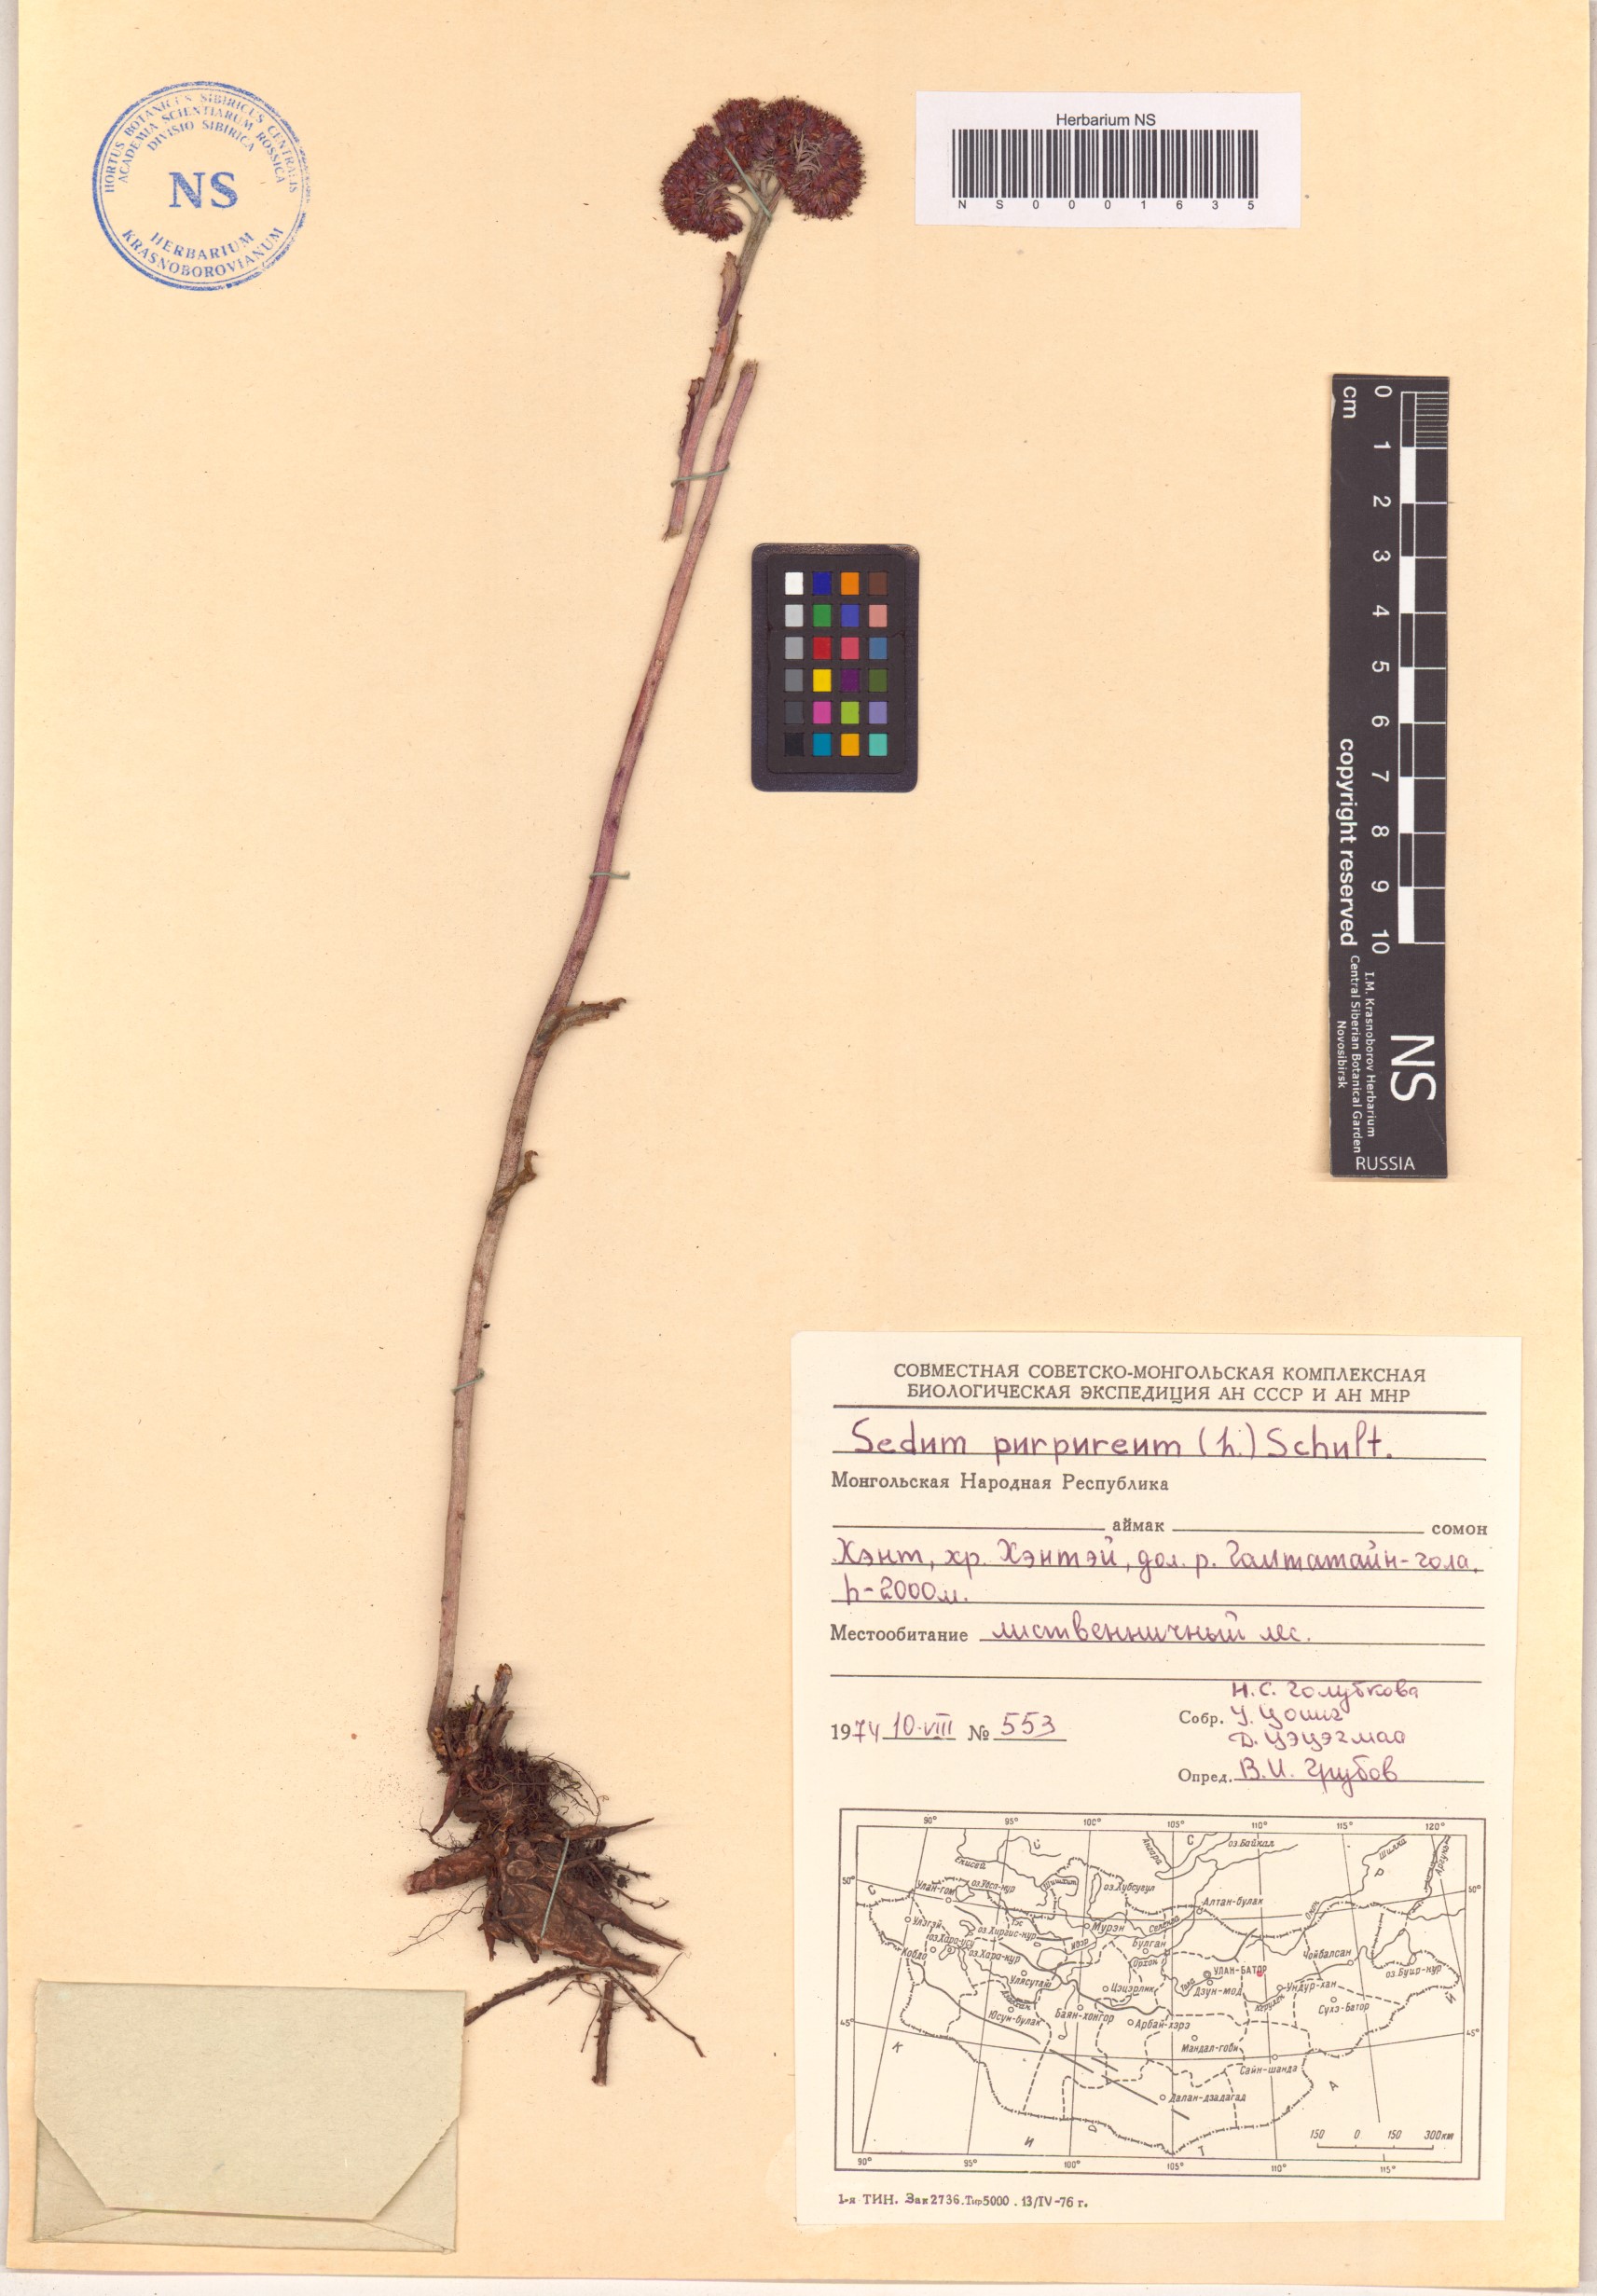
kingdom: Plantae
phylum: Tracheophyta
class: Magnoliopsida
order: Saxifragales
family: Crassulaceae
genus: Hylotelephium
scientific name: Hylotelephium telephium
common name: Live-forever
